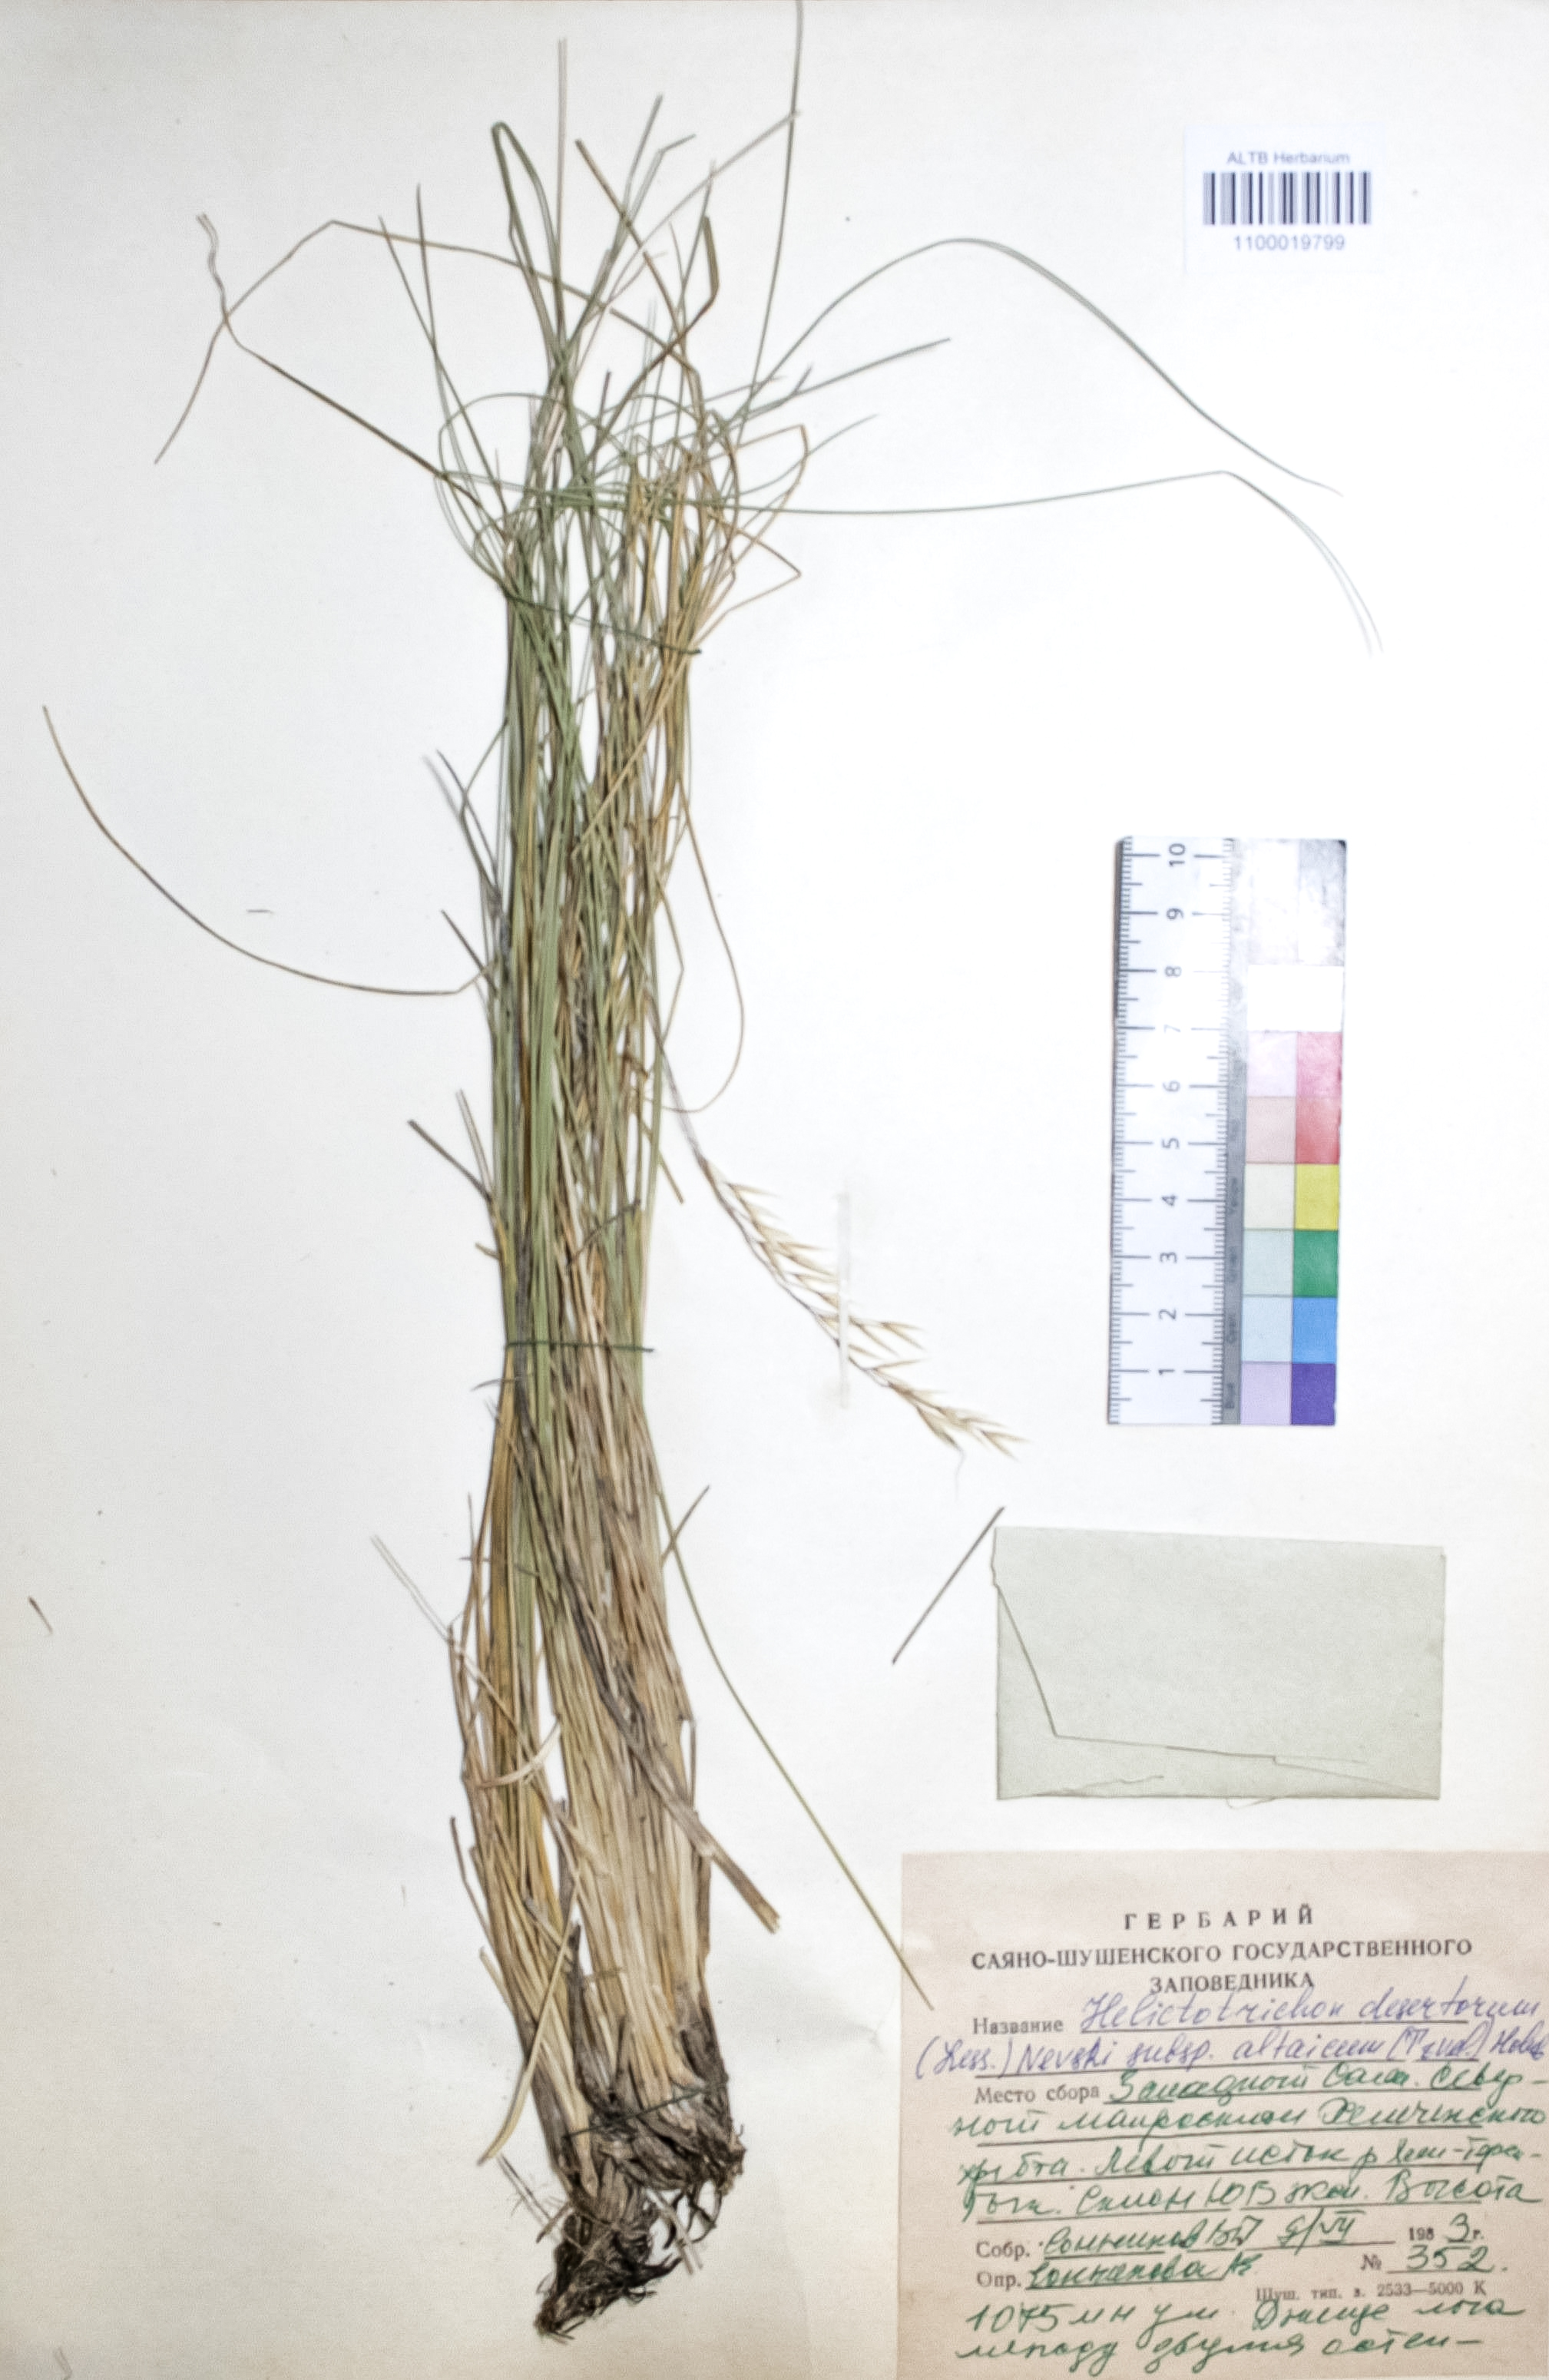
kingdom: Plantae
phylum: Tracheophyta
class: Liliopsida
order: Poales
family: Poaceae
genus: Helictotrichon
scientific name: Helictotrichon desertorum
